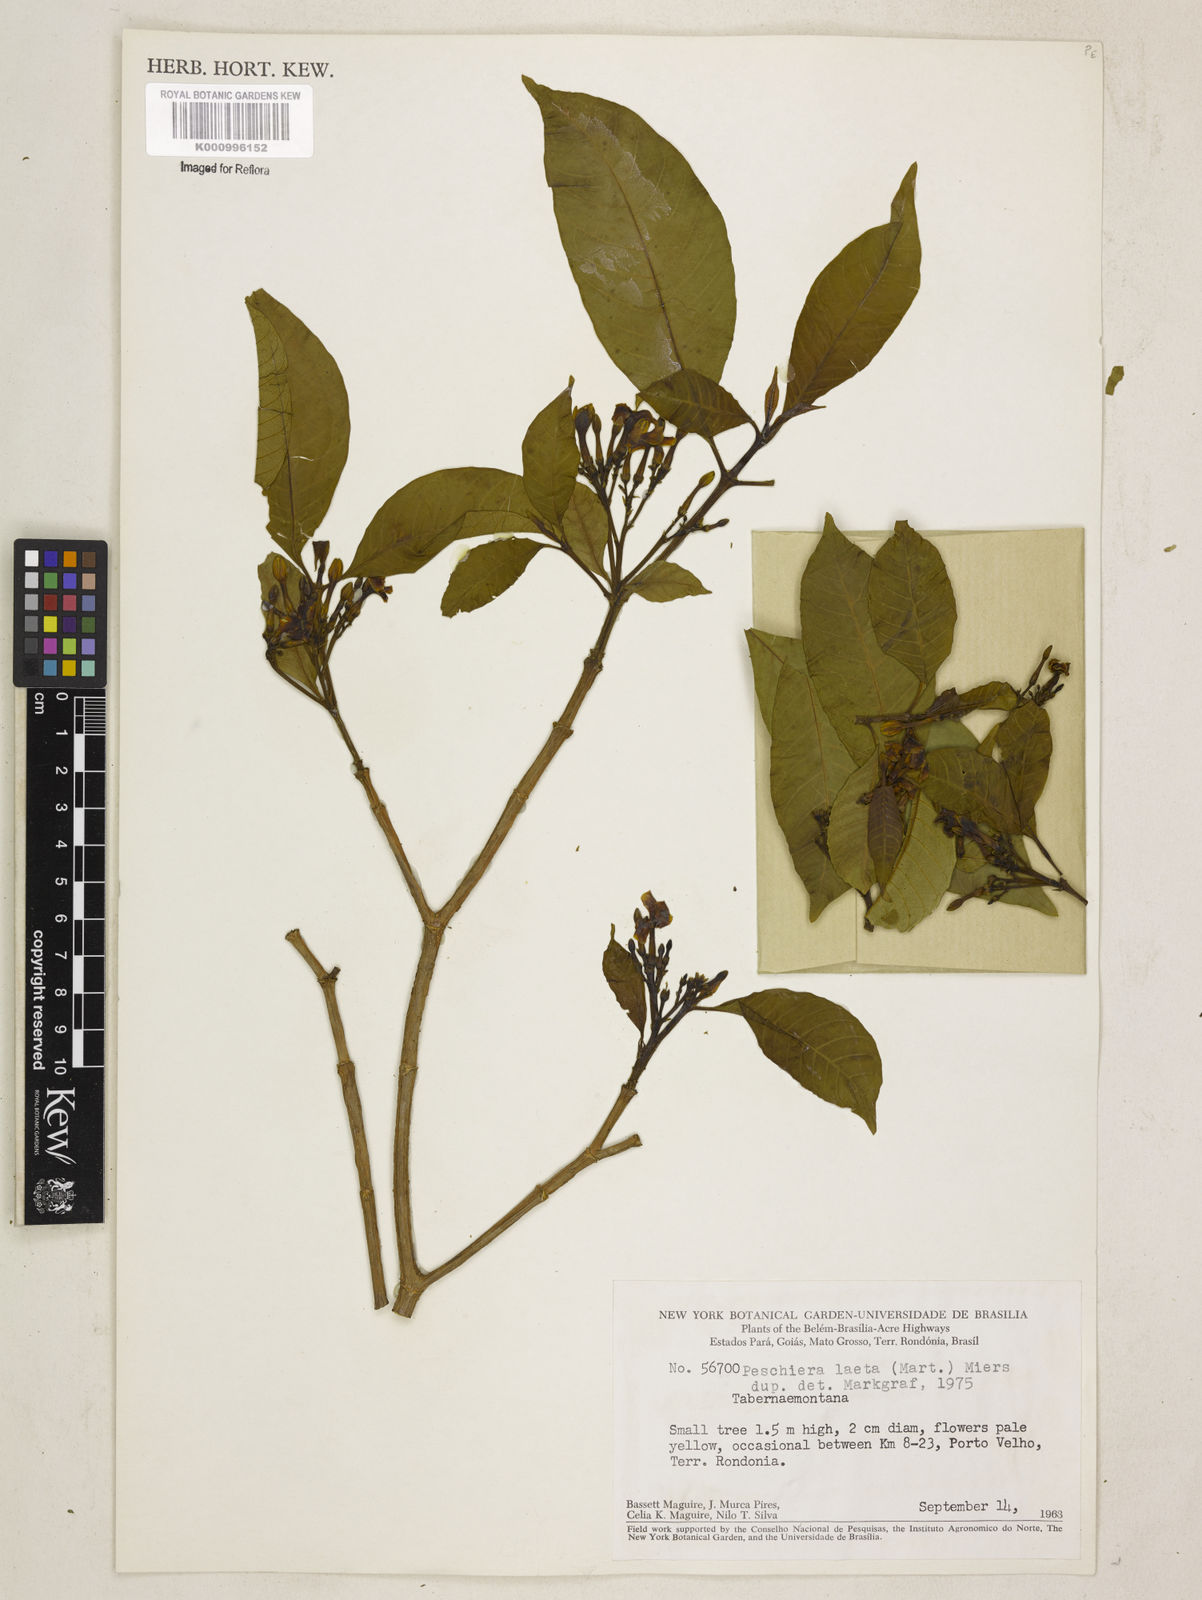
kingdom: Plantae
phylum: Tracheophyta
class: Magnoliopsida
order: Gentianales
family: Apocynaceae
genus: Tabernaemontana
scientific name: Tabernaemontana laeta
